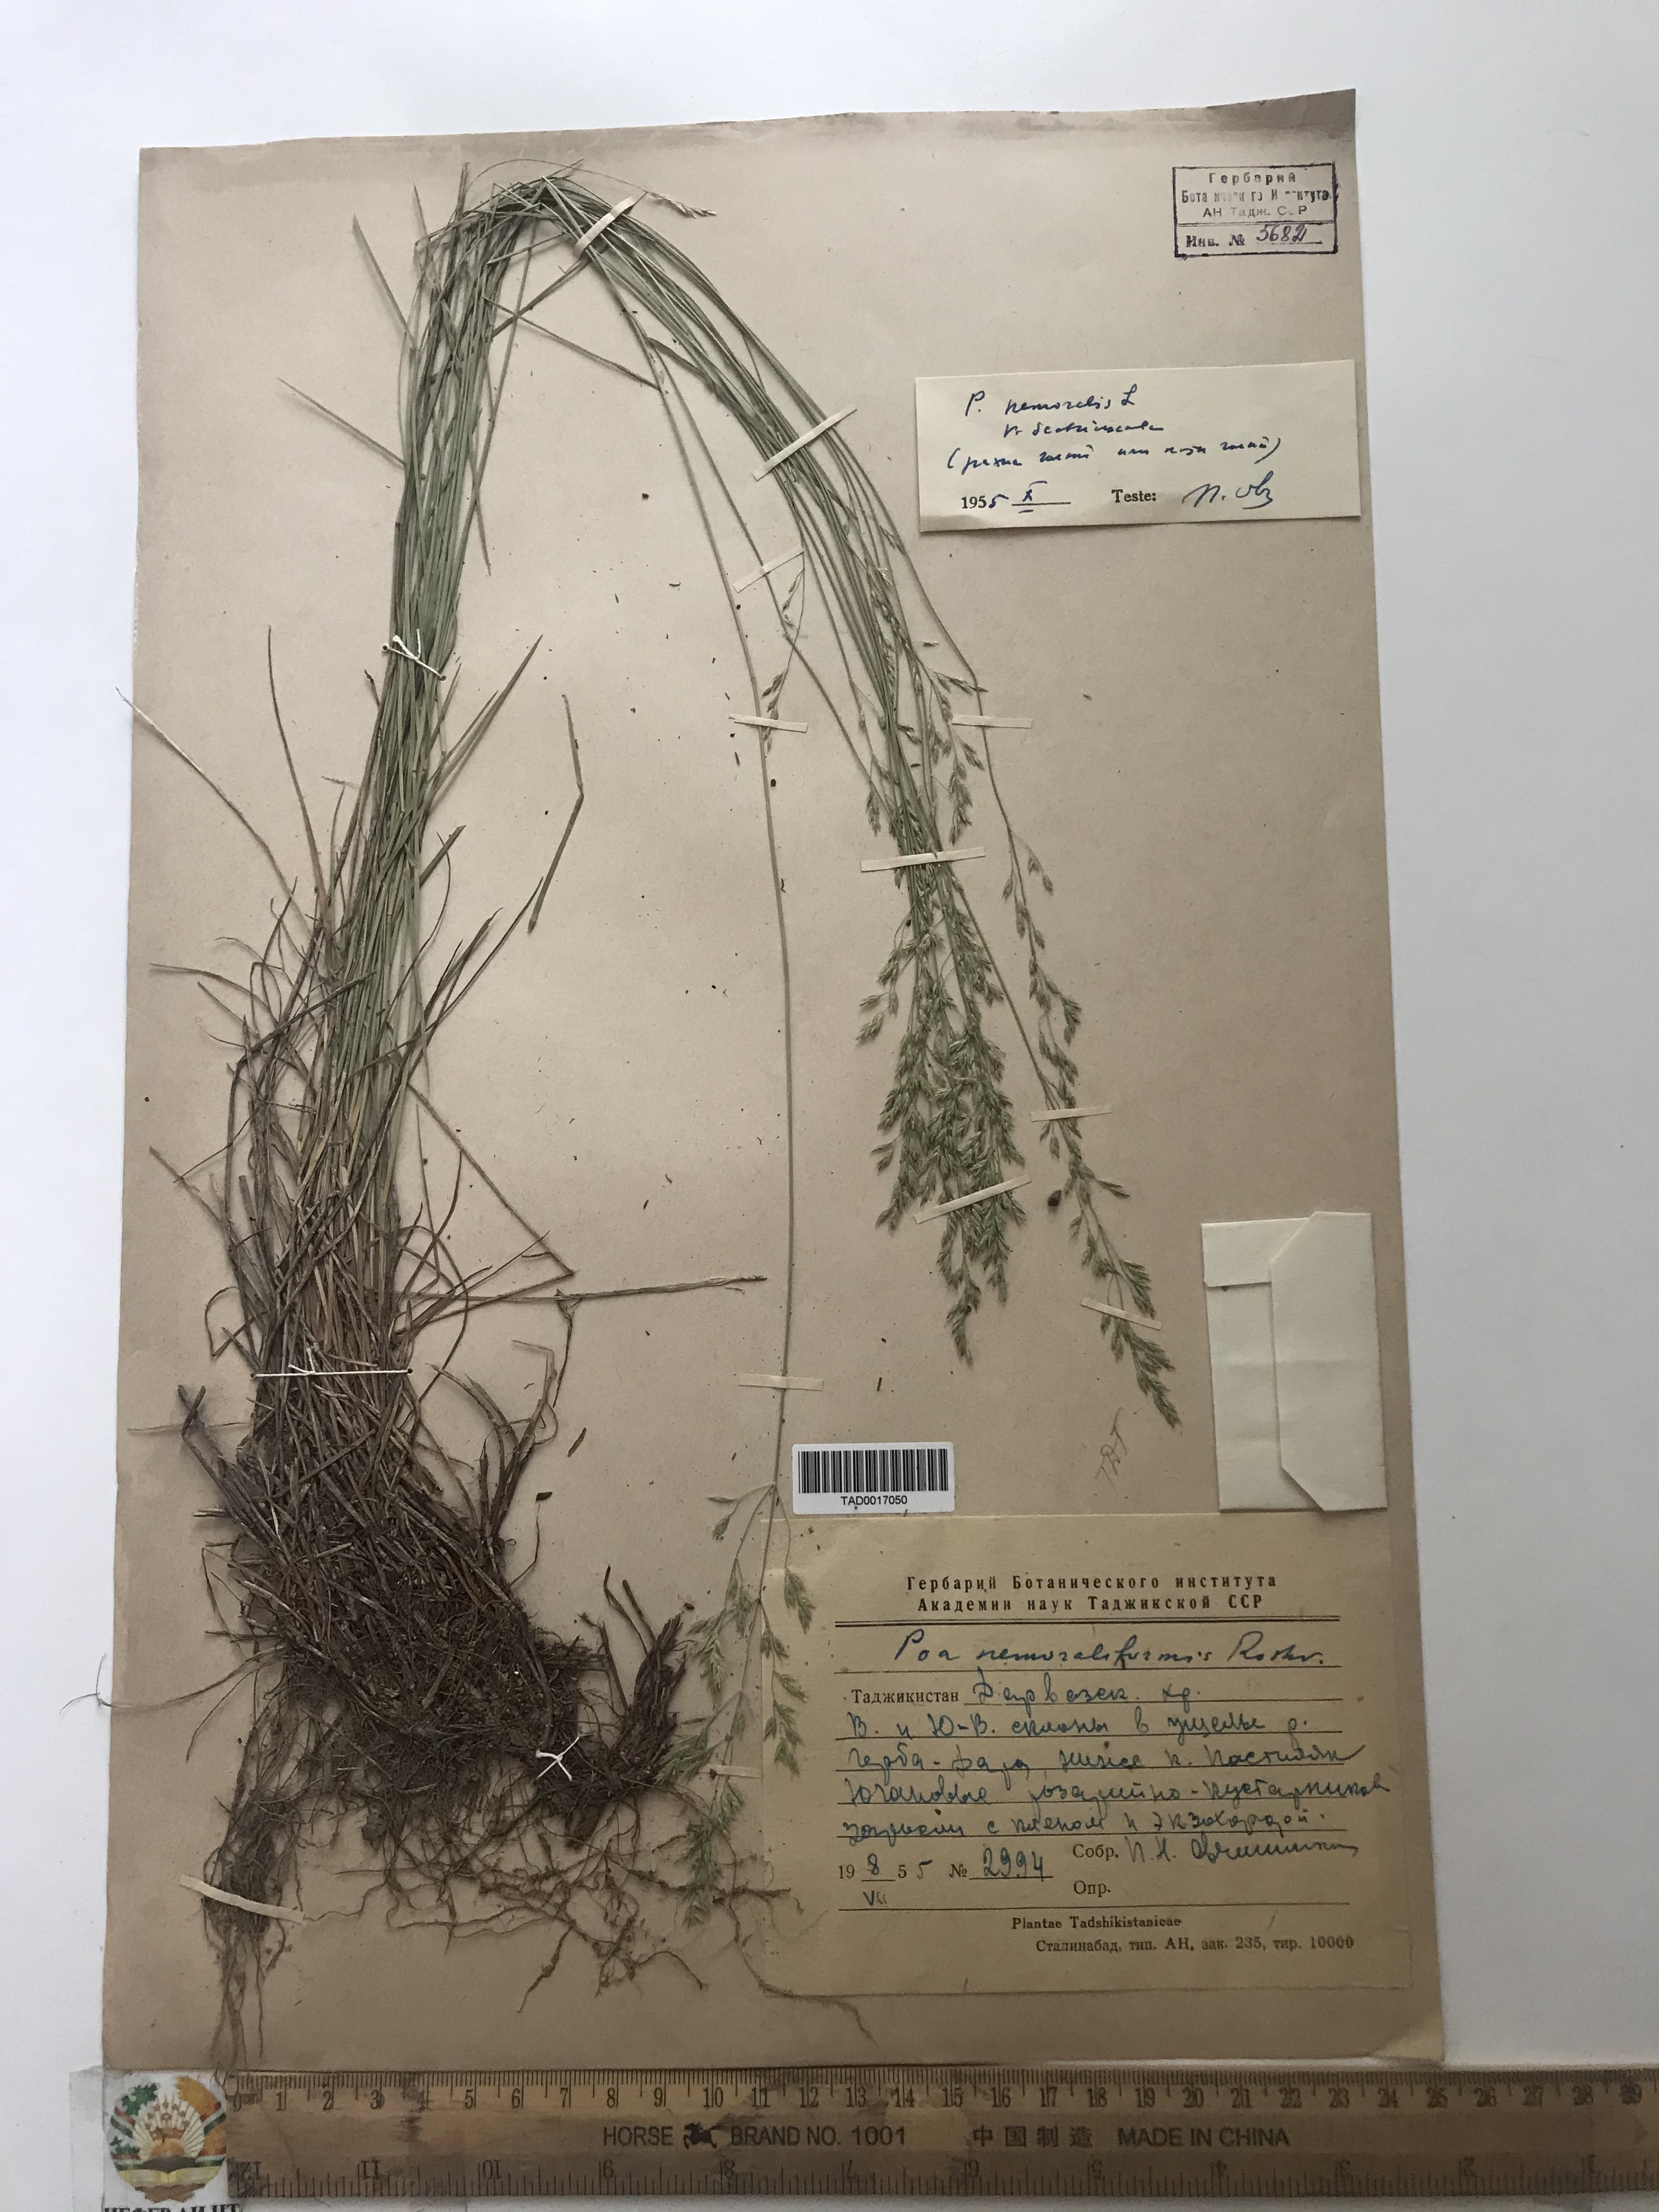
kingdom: Plantae
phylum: Tracheophyta
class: Liliopsida
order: Poales
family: Poaceae
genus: Poa
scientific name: Poa nemoraliformis
